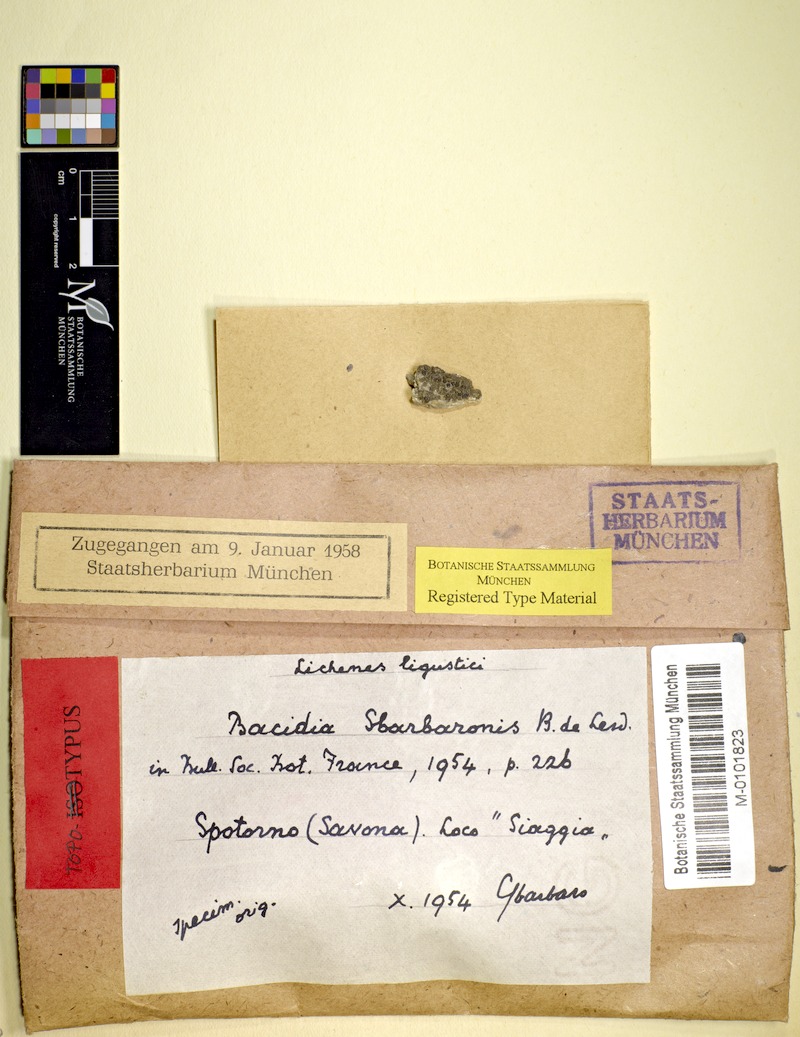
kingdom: Fungi
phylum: Ascomycota
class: Lecanoromycetes
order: Lecanorales
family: Ramalinaceae
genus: Bacidina
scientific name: Bacidina egenula
